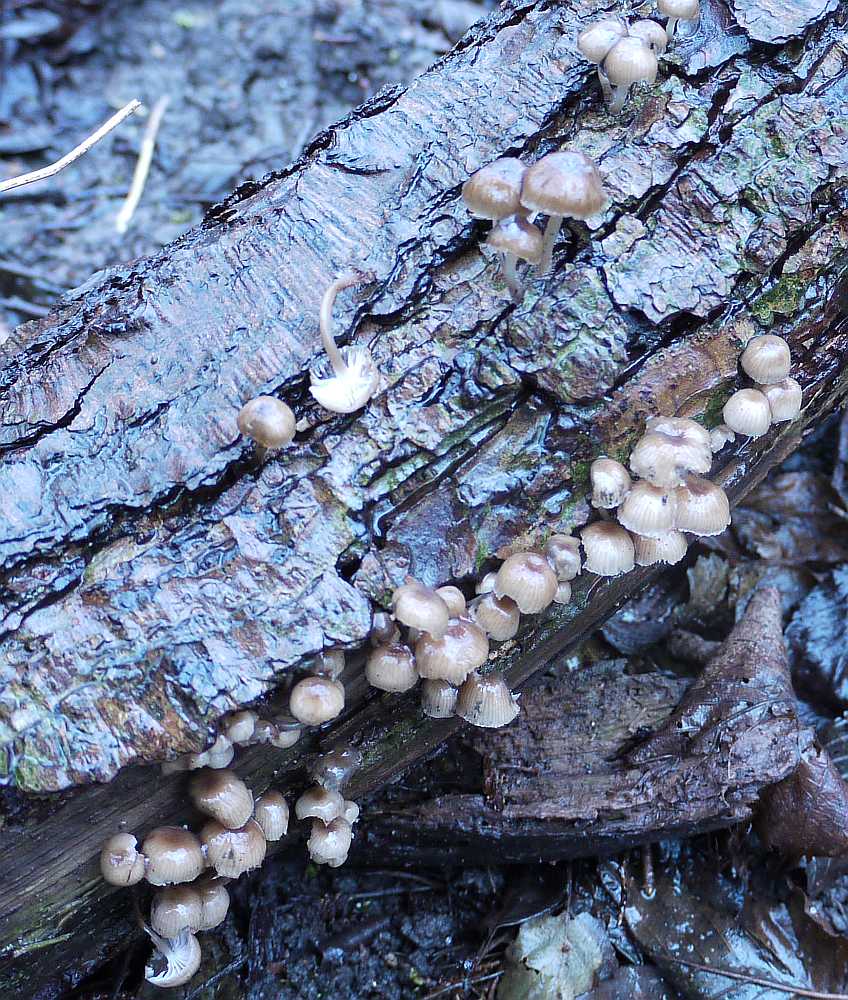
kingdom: Fungi
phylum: Basidiomycota
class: Agaricomycetes
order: Agaricales
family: Mycenaceae
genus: Mycena
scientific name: Mycena tintinnabulum
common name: vinter-huesvamp
